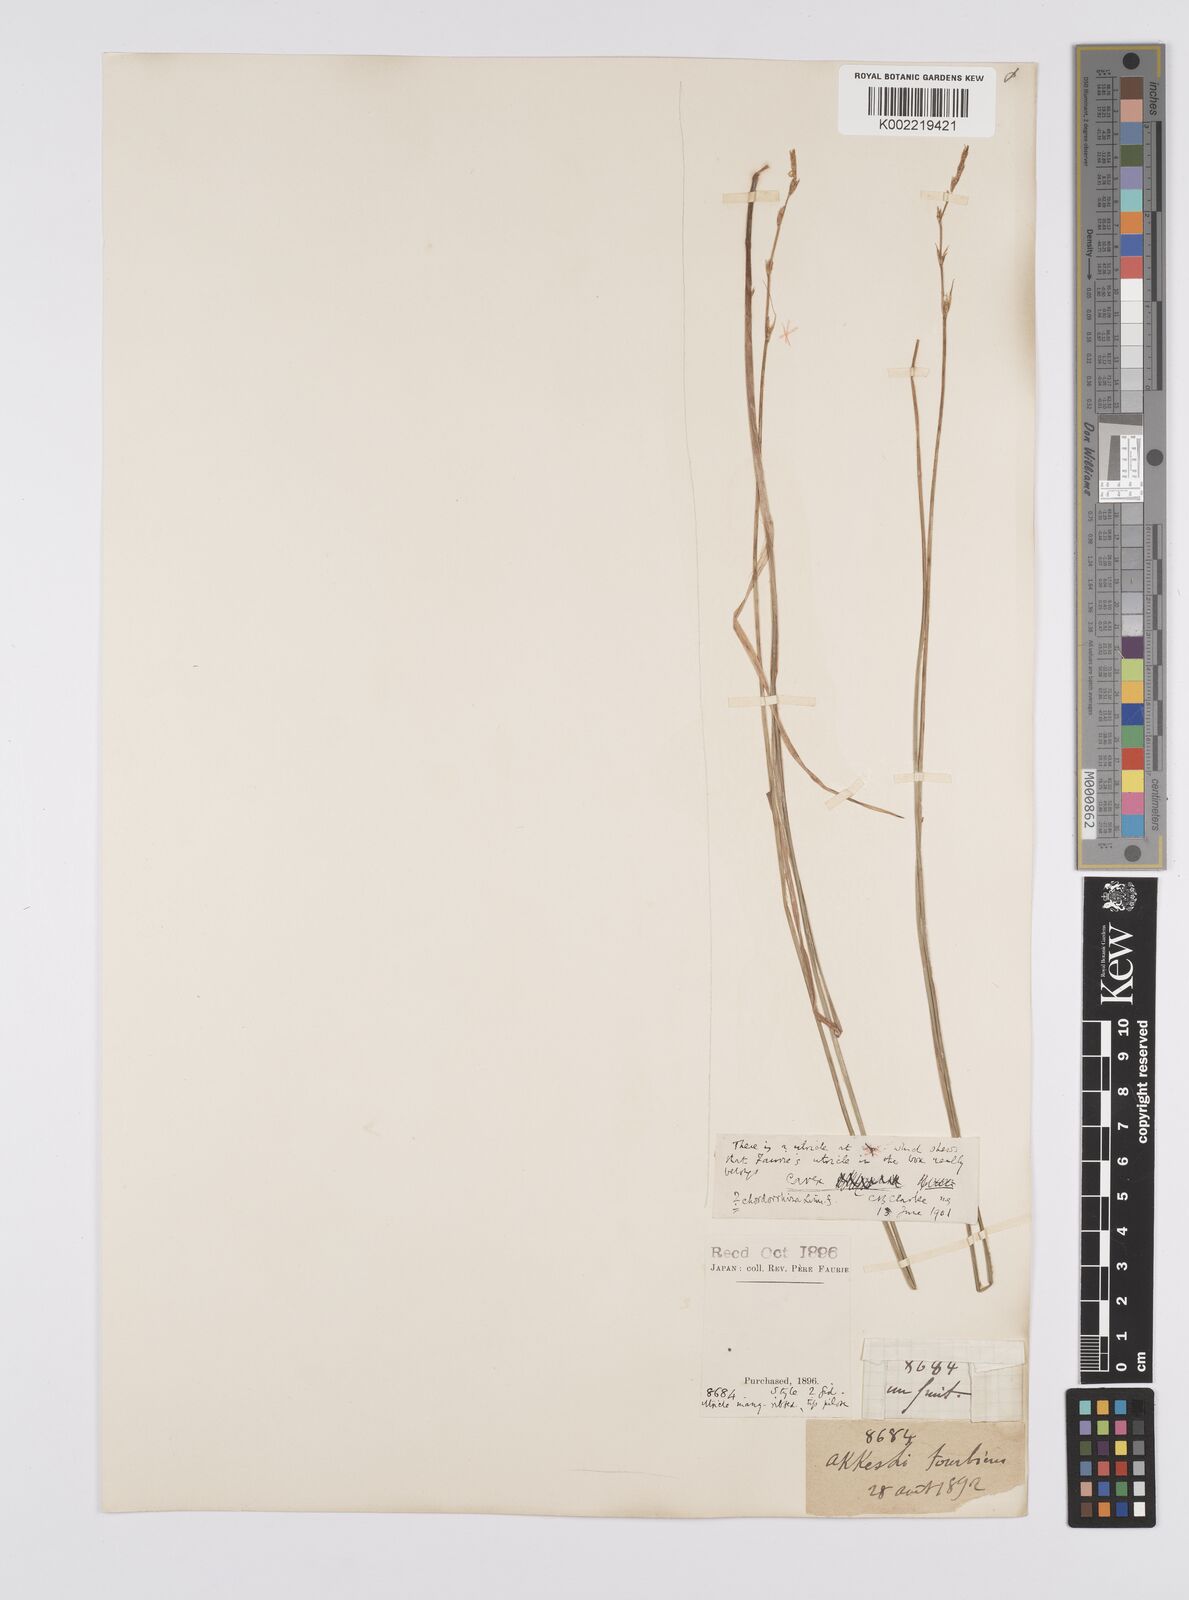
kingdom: Plantae
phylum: Tracheophyta
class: Liliopsida
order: Poales
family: Cyperaceae
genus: Carex
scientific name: Carex chordorrhiza
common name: String sedge
